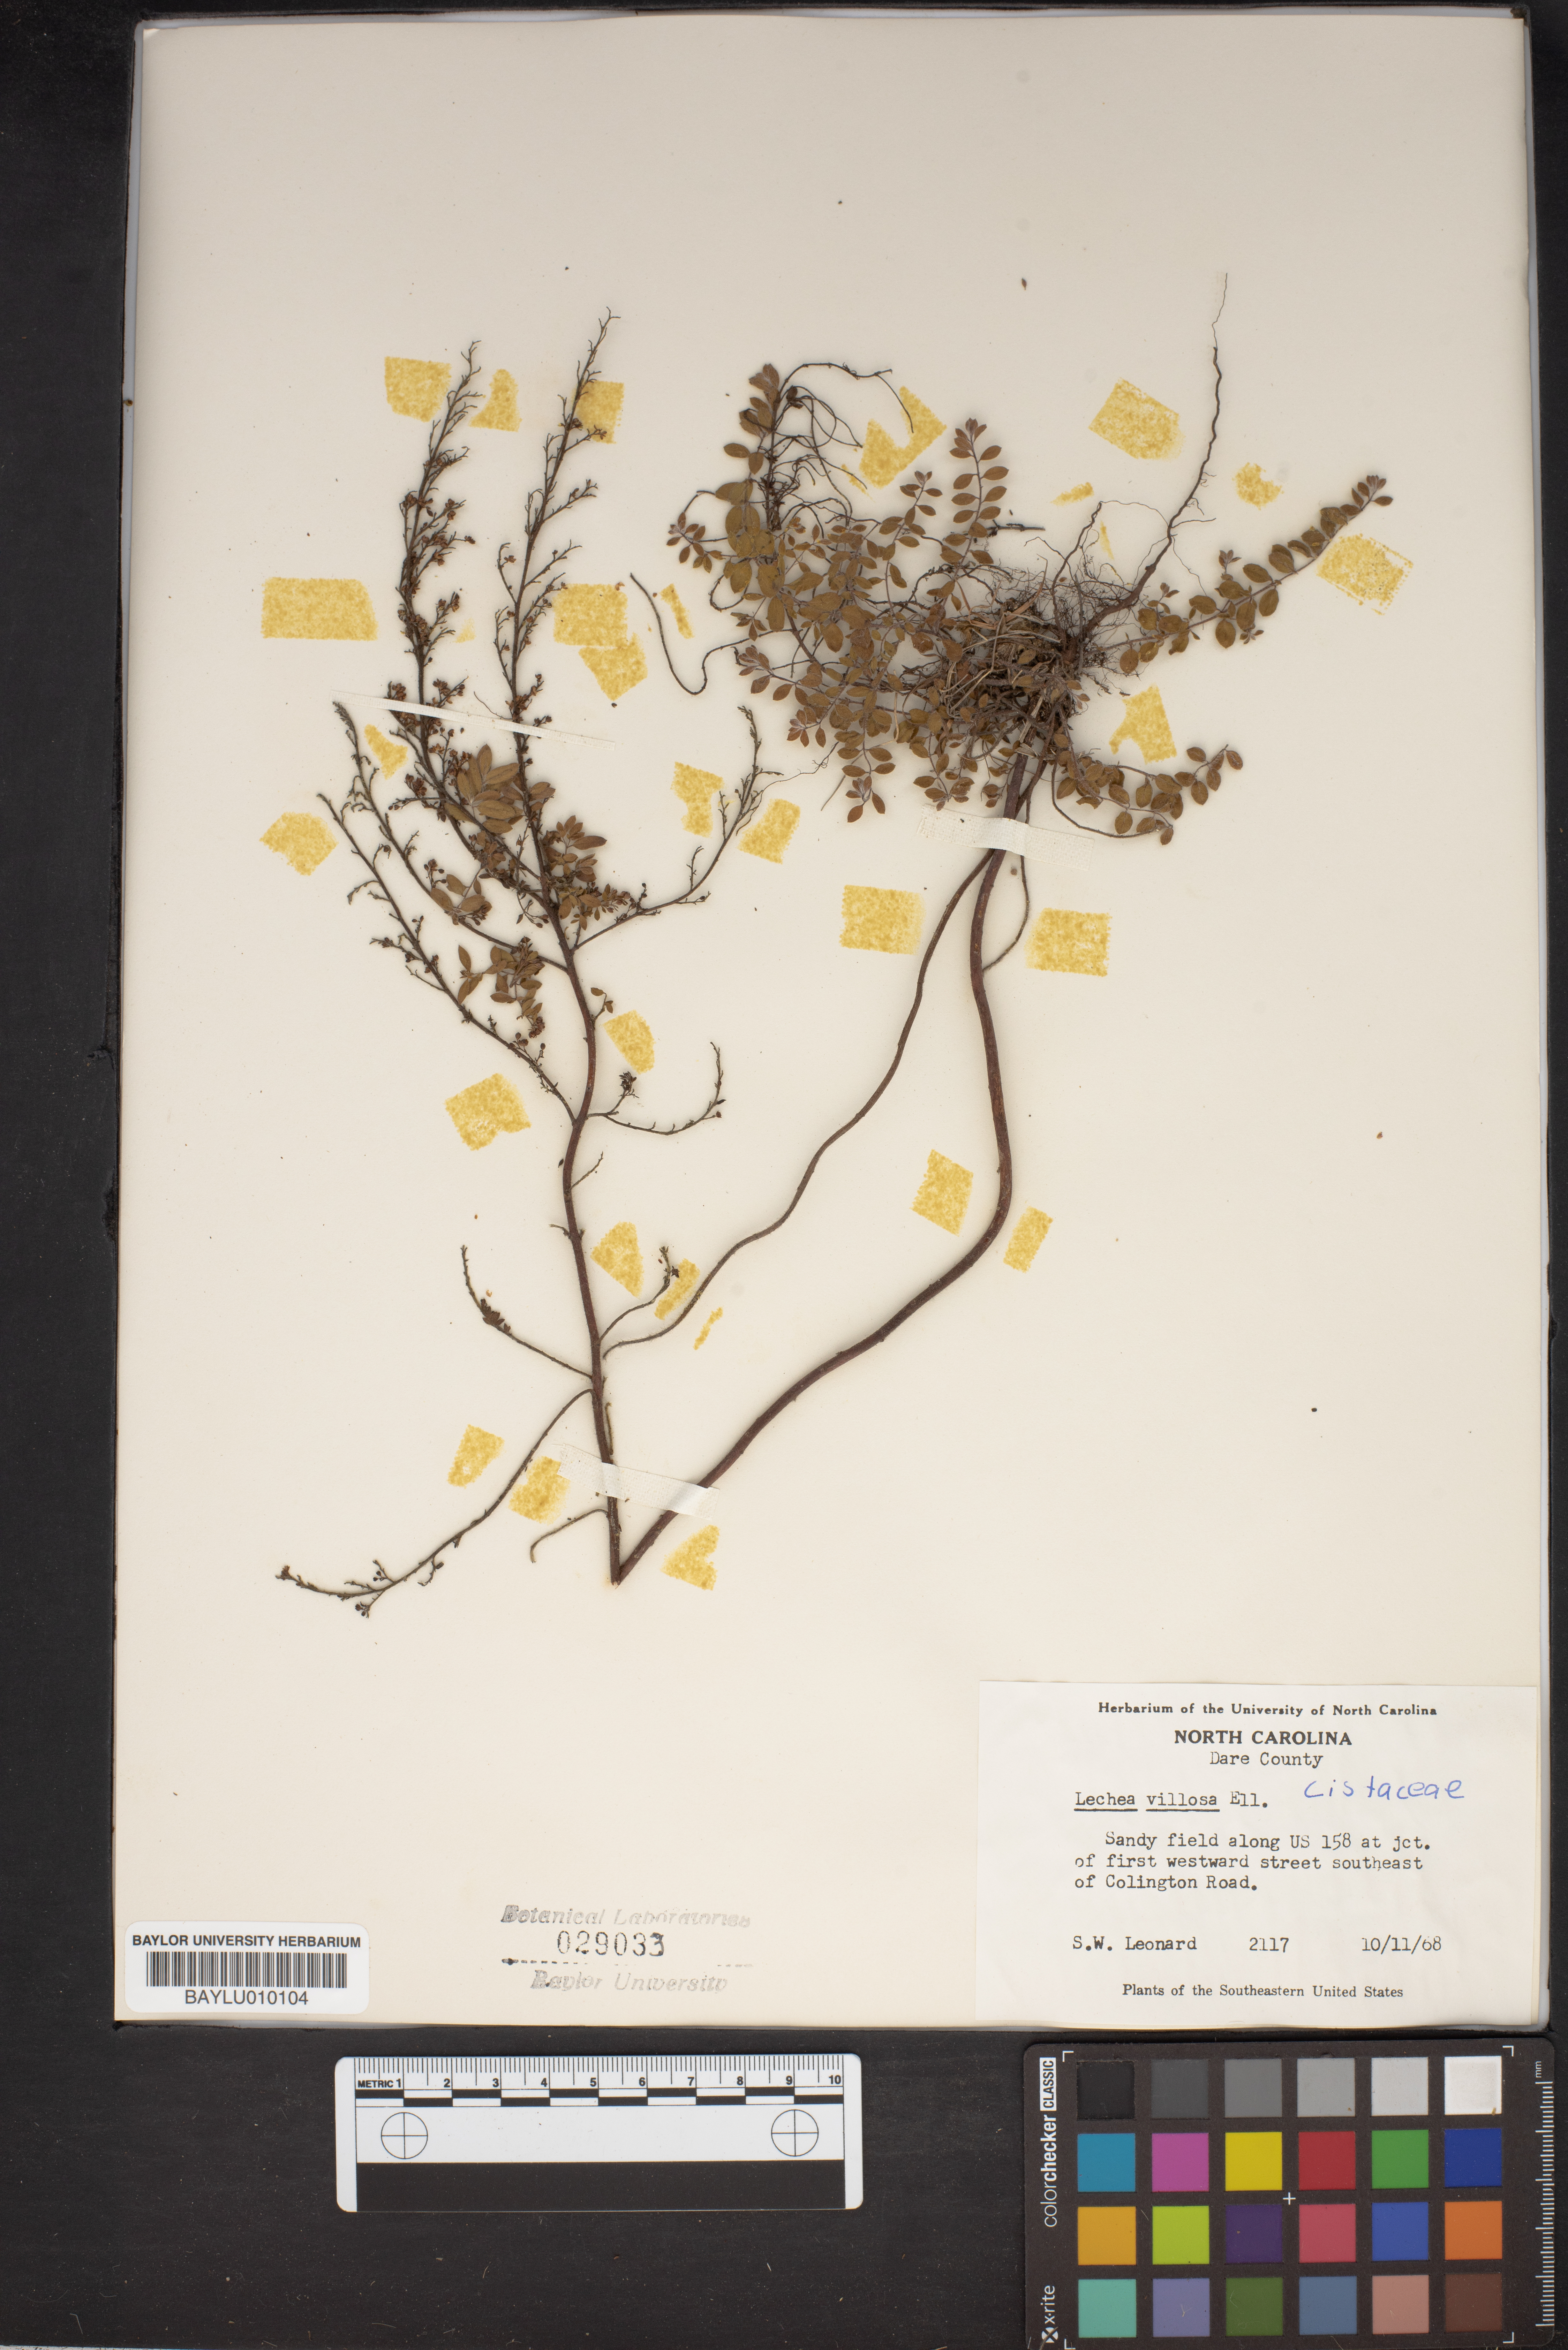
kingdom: Plantae
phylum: Tracheophyta
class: Magnoliopsida
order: Malvales
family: Cistaceae
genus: Lechea
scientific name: Lechea mucronata
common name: Hairy pinweed
